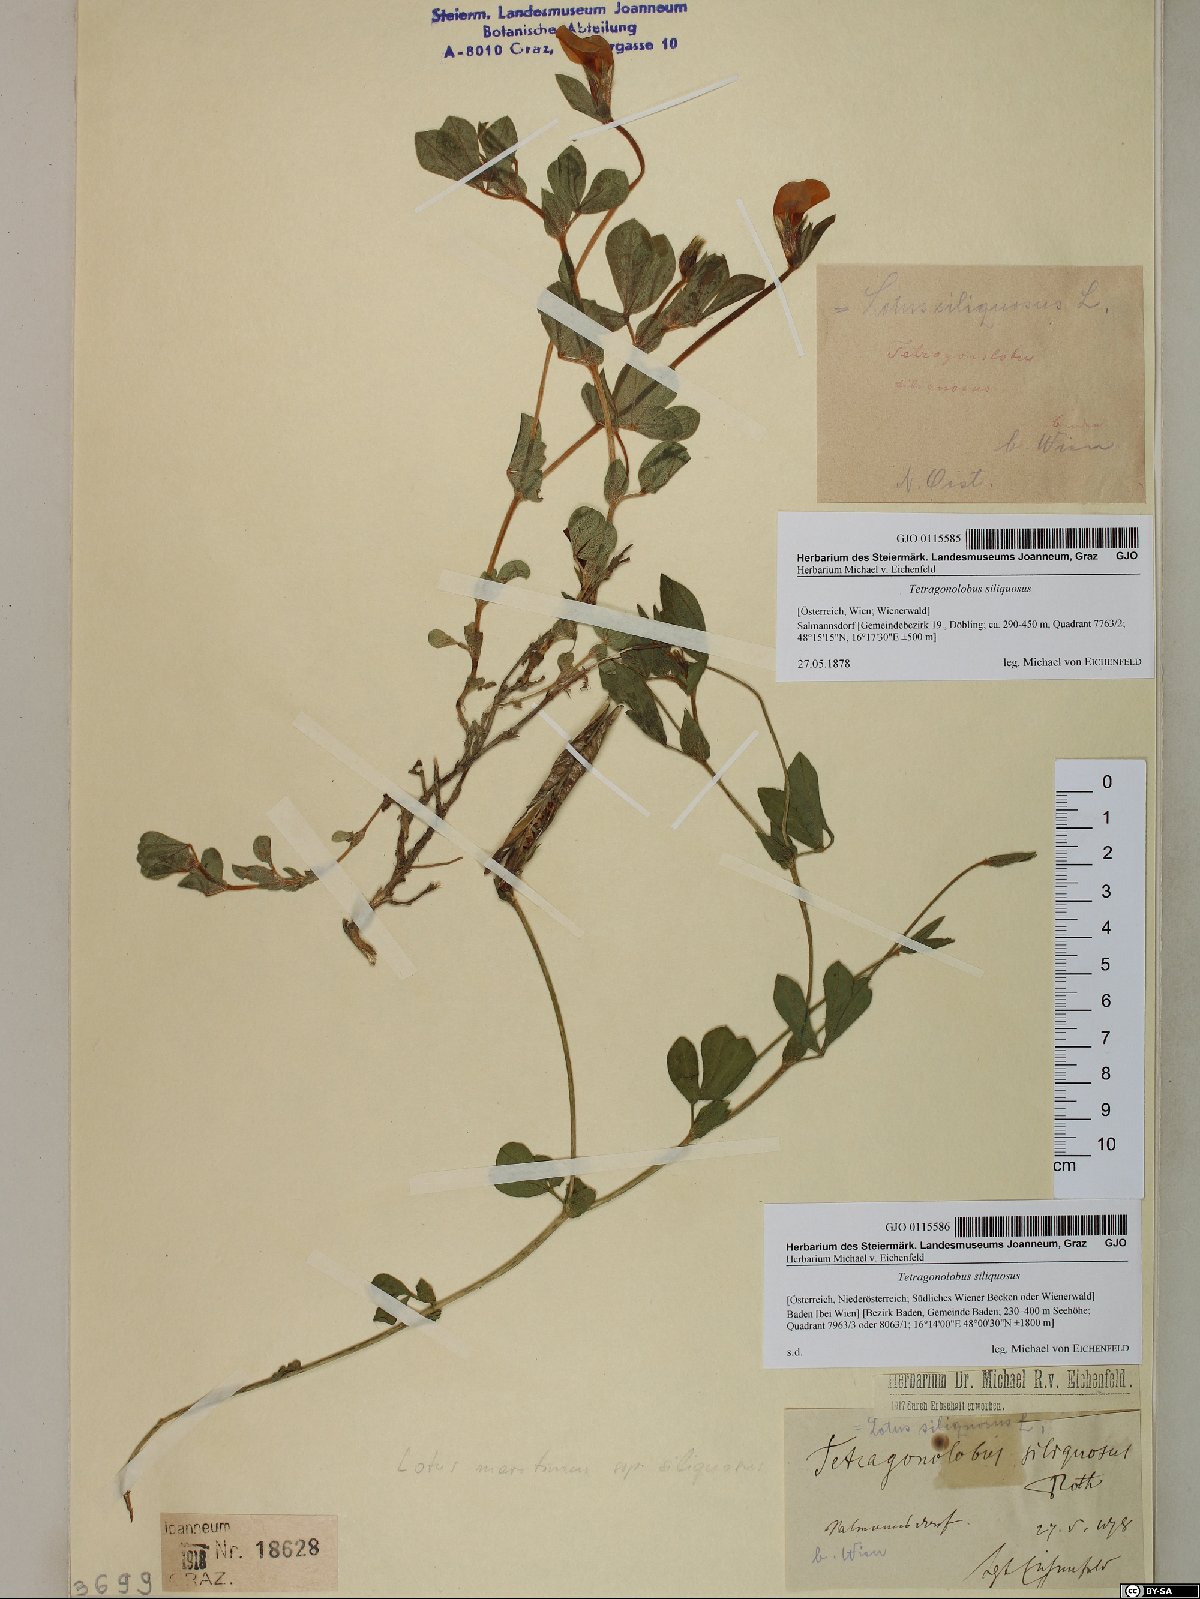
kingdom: Plantae
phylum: Tracheophyta
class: Magnoliopsida
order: Fabales
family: Fabaceae
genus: Lathyrus
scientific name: Lathyrus inconspicuus
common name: Inconspicuous pea
